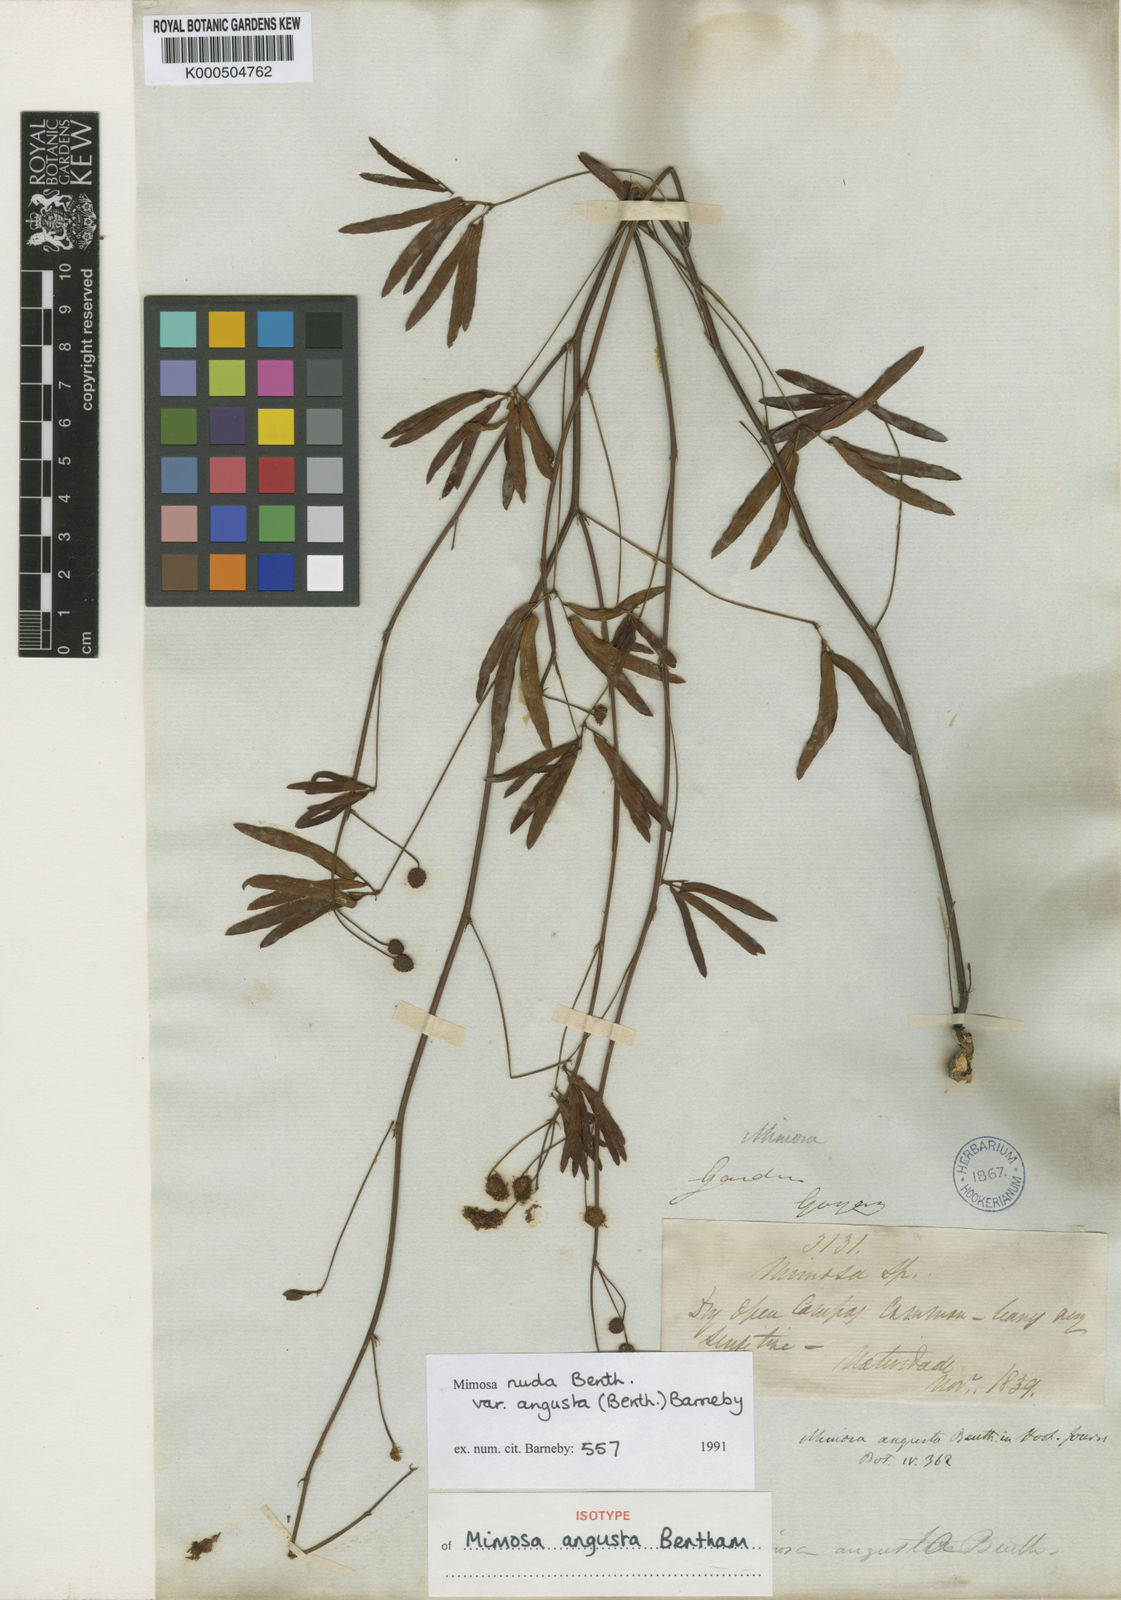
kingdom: Plantae
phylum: Tracheophyta
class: Magnoliopsida
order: Fabales
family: Fabaceae
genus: Mimosa
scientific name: Mimosa debilis
